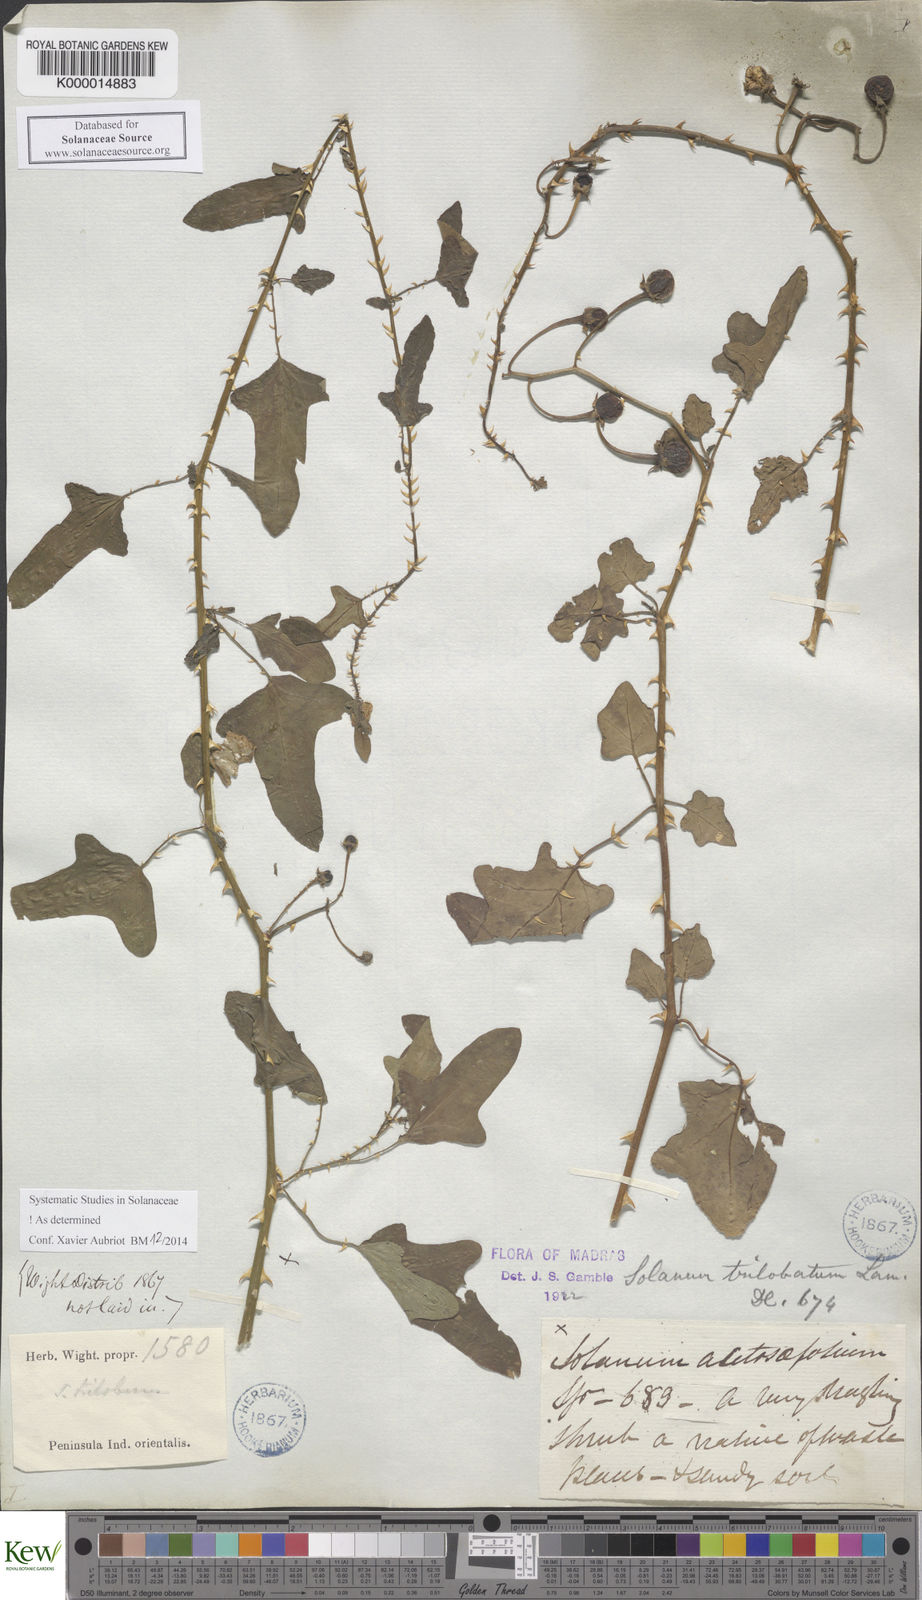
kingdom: Plantae
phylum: Tracheophyta
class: Magnoliopsida
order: Solanales
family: Solanaceae
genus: Solanum
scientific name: Solanum trilobatum
